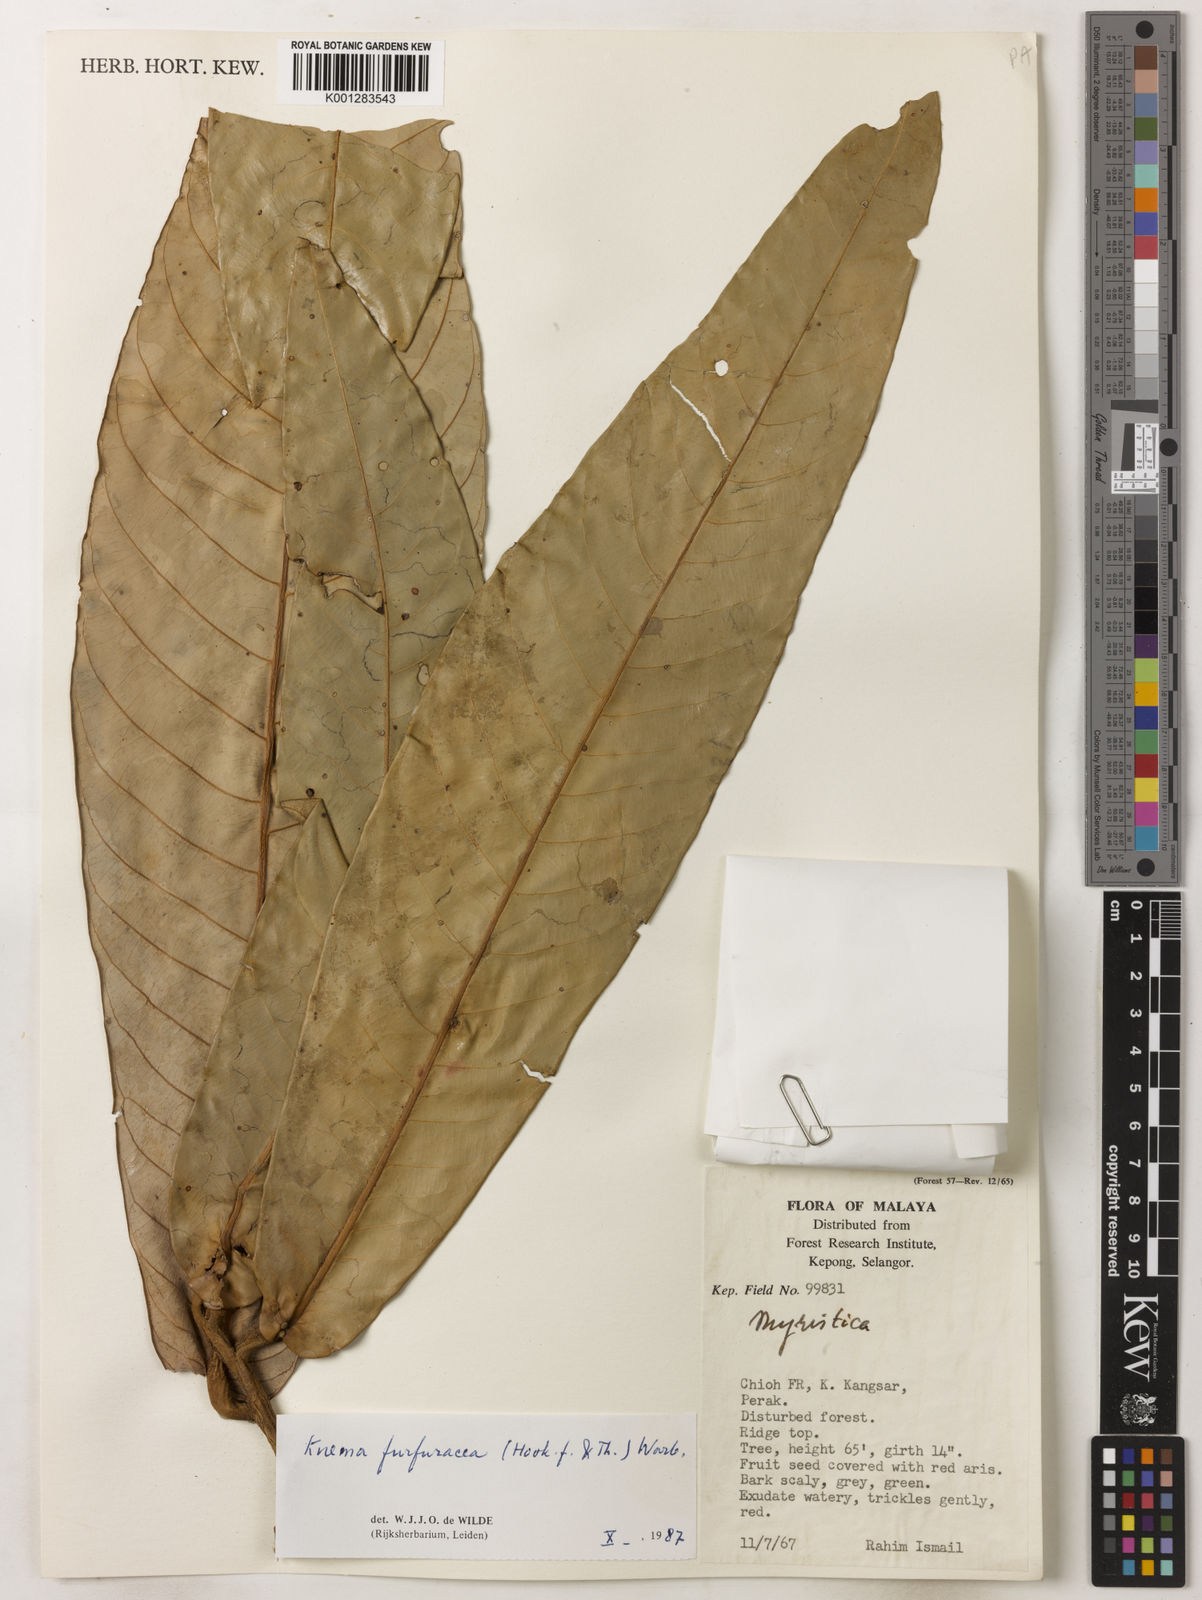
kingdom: Plantae
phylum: Tracheophyta
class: Magnoliopsida
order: Magnoliales
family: Myristicaceae
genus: Knema
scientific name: Knema furfuracea
